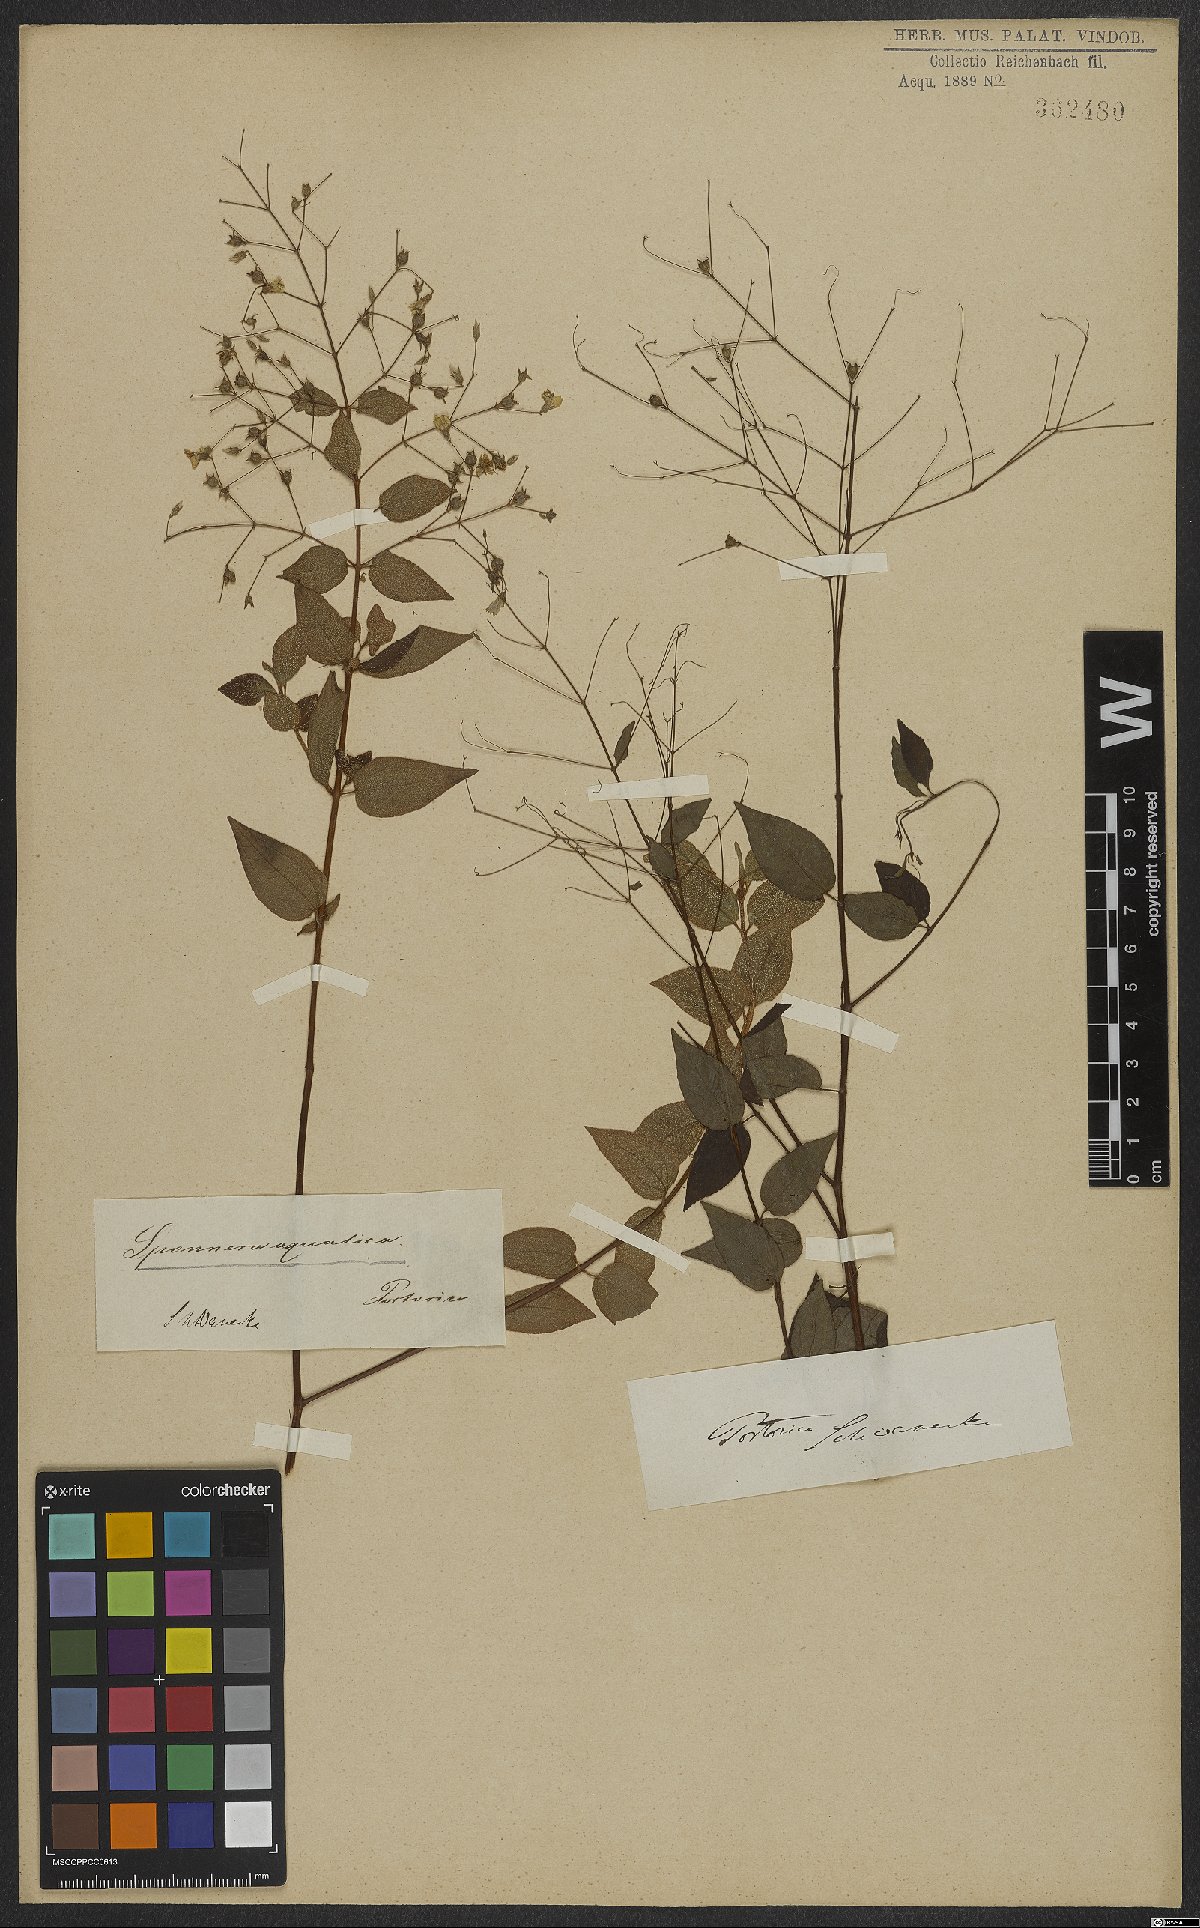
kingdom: Plantae
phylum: Tracheophyta
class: Magnoliopsida
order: Myrtales
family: Melastomataceae
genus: Nepsera
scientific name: Nepsera aquatica
